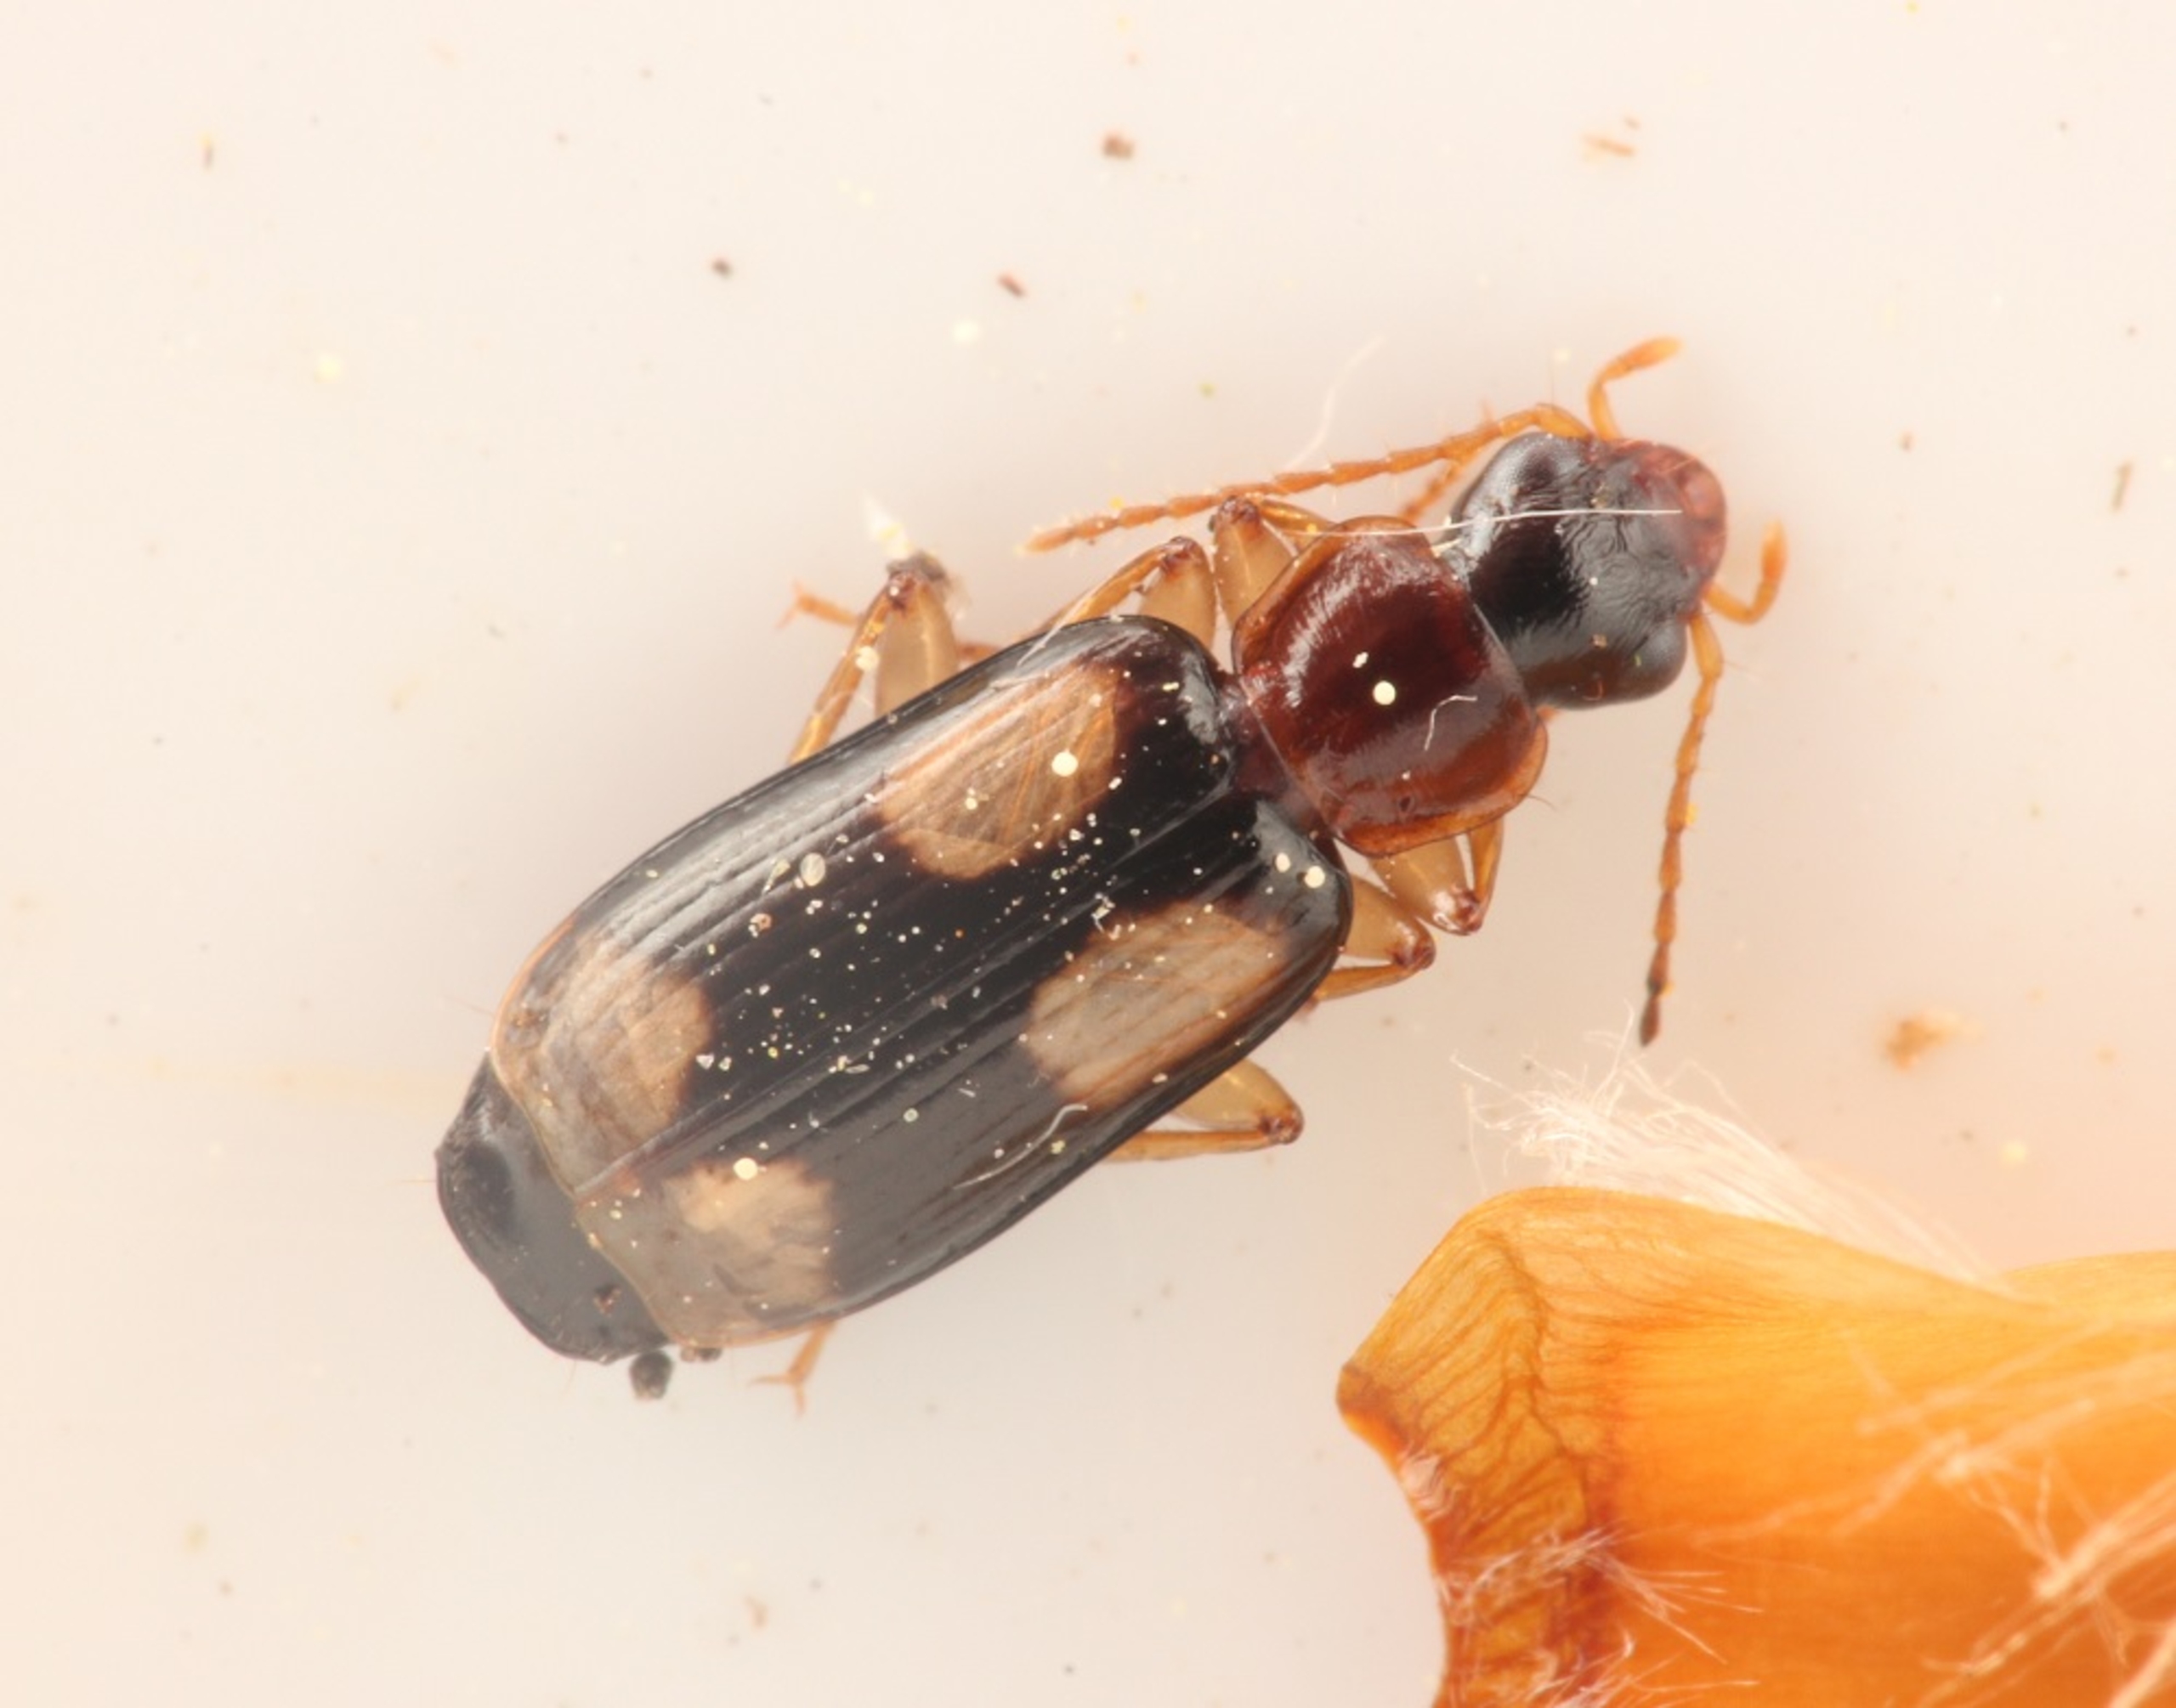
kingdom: Animalia
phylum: Arthropoda
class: Insecta
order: Coleoptera
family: Carabidae
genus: Dromius
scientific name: Dromius quadrimaculatus
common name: Fireplettet barkløber
